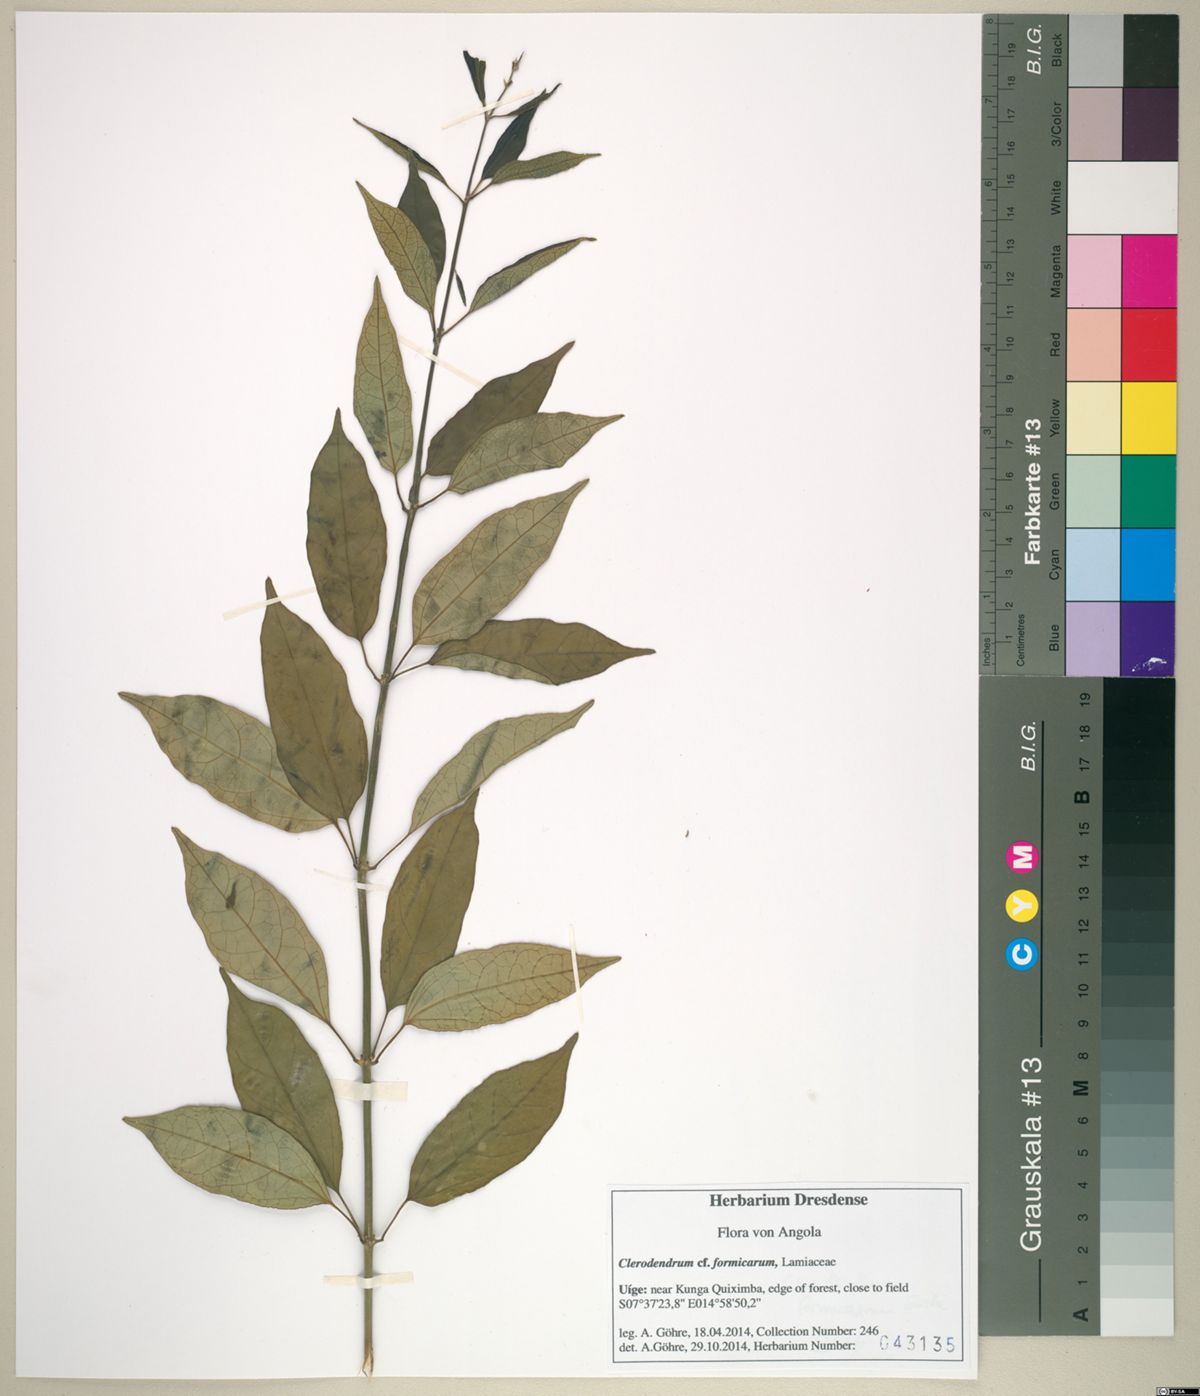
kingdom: Plantae
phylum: Tracheophyta
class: Magnoliopsida
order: Lamiales
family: Lamiaceae
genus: Clerodendrum
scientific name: Clerodendrum formicarum
